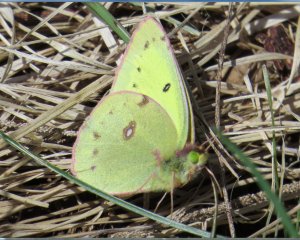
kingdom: Animalia
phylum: Arthropoda
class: Insecta
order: Lepidoptera
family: Pieridae
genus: Colias
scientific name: Colias philodice
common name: Clouded Sulphur
